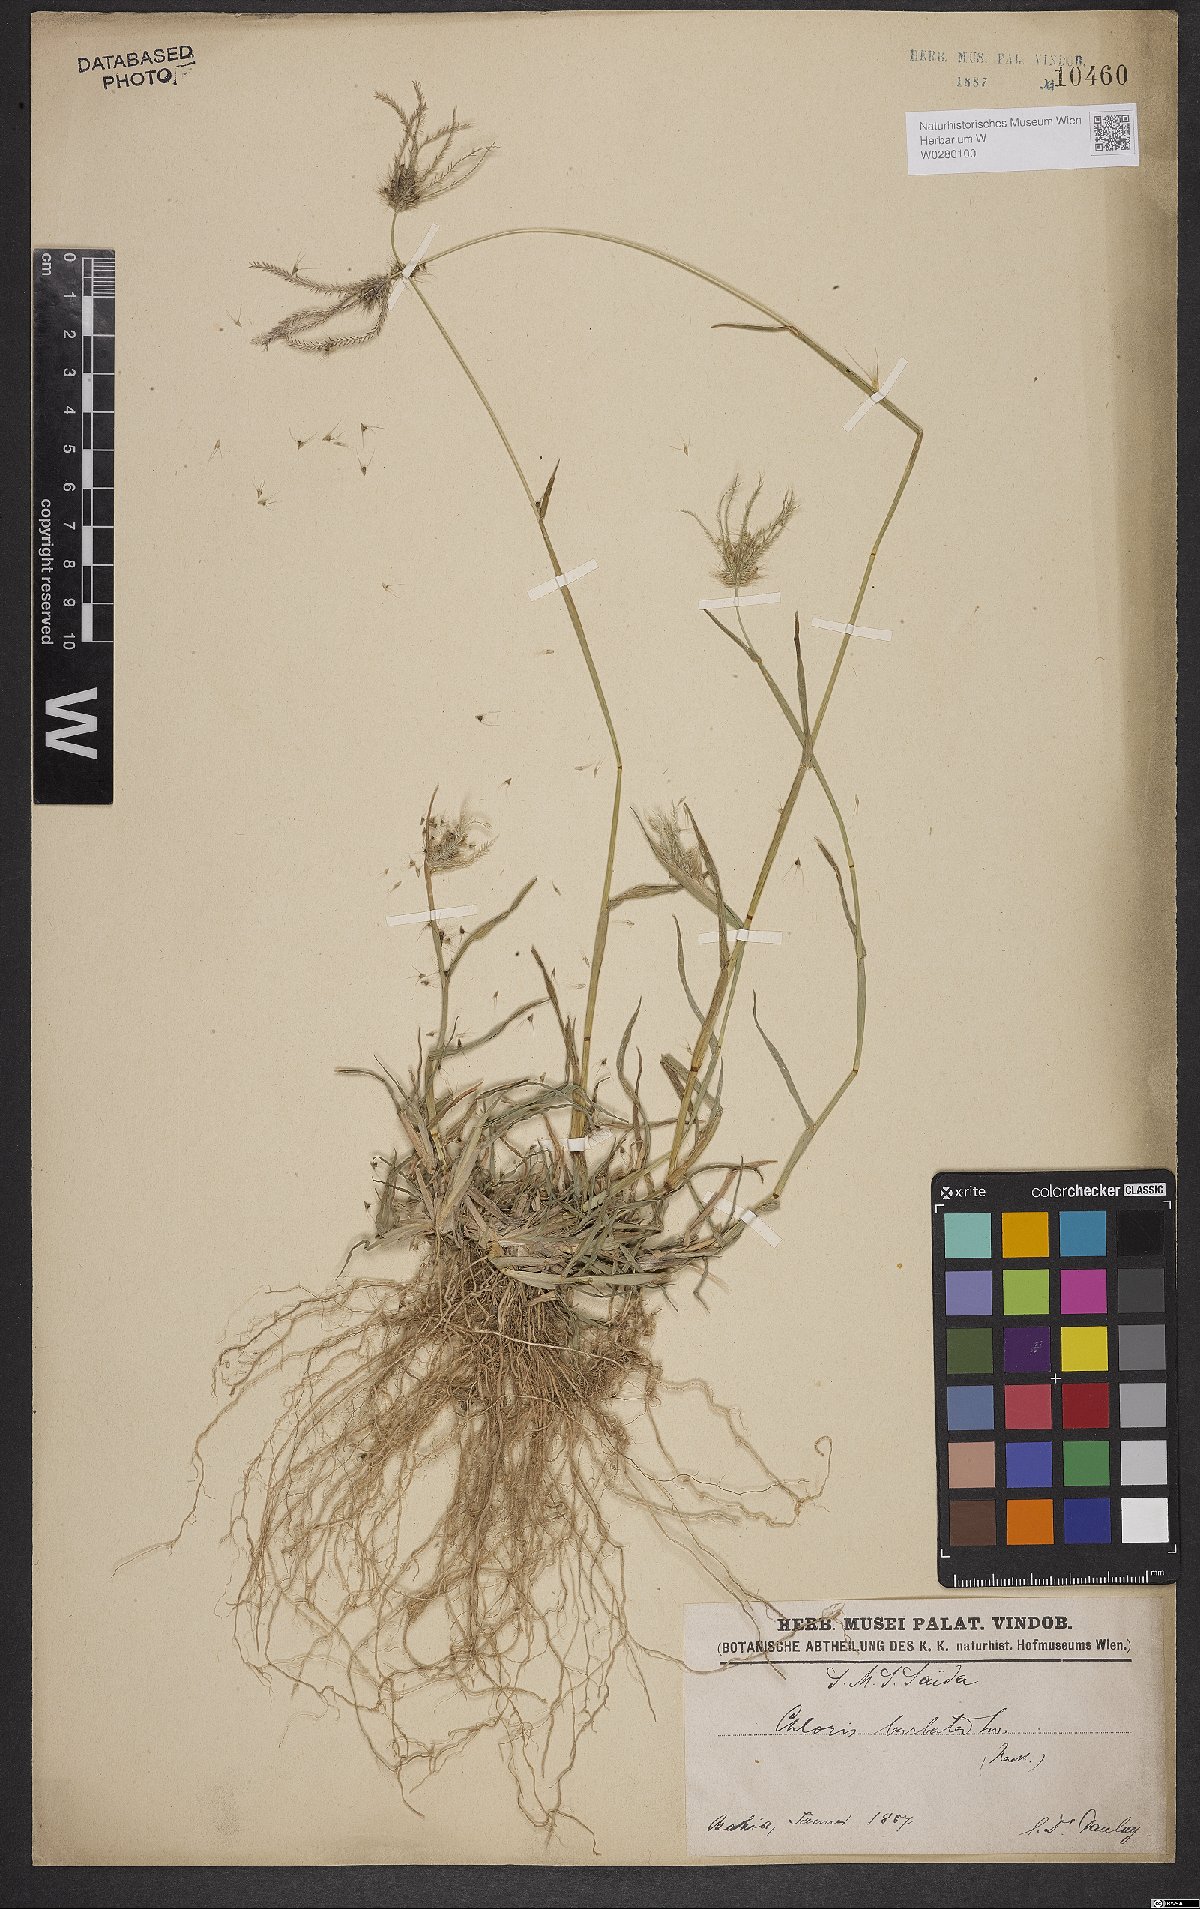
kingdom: Plantae
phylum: Tracheophyta
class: Liliopsida
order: Poales
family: Poaceae
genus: Chloris
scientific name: Chloris barbata
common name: Swollen fingergrass
